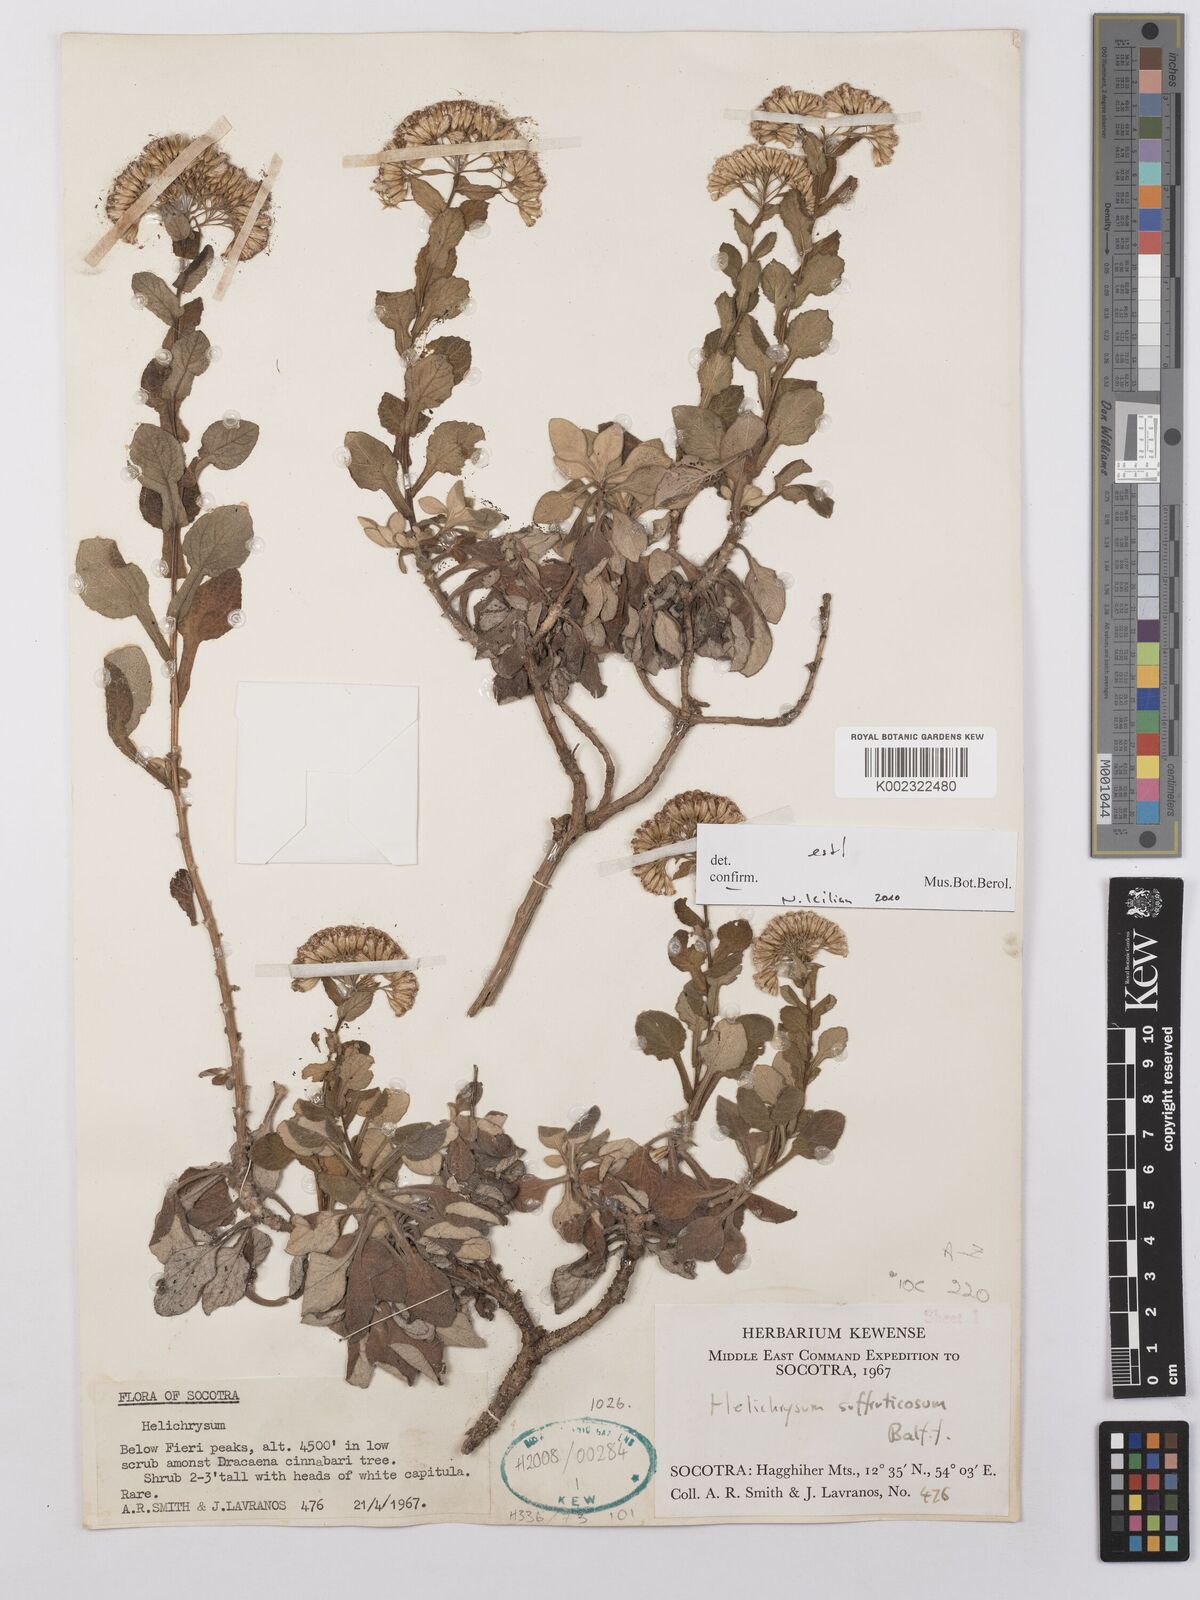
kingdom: Plantae
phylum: Tracheophyta
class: Magnoliopsida
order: Asterales
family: Asteraceae
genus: Libinhania
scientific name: Libinhania suffruticosa
